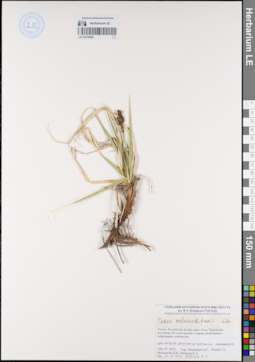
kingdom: Plantae
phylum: Tracheophyta
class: Liliopsida
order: Poales
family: Cyperaceae
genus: Carex
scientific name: Carex melananthiformis
